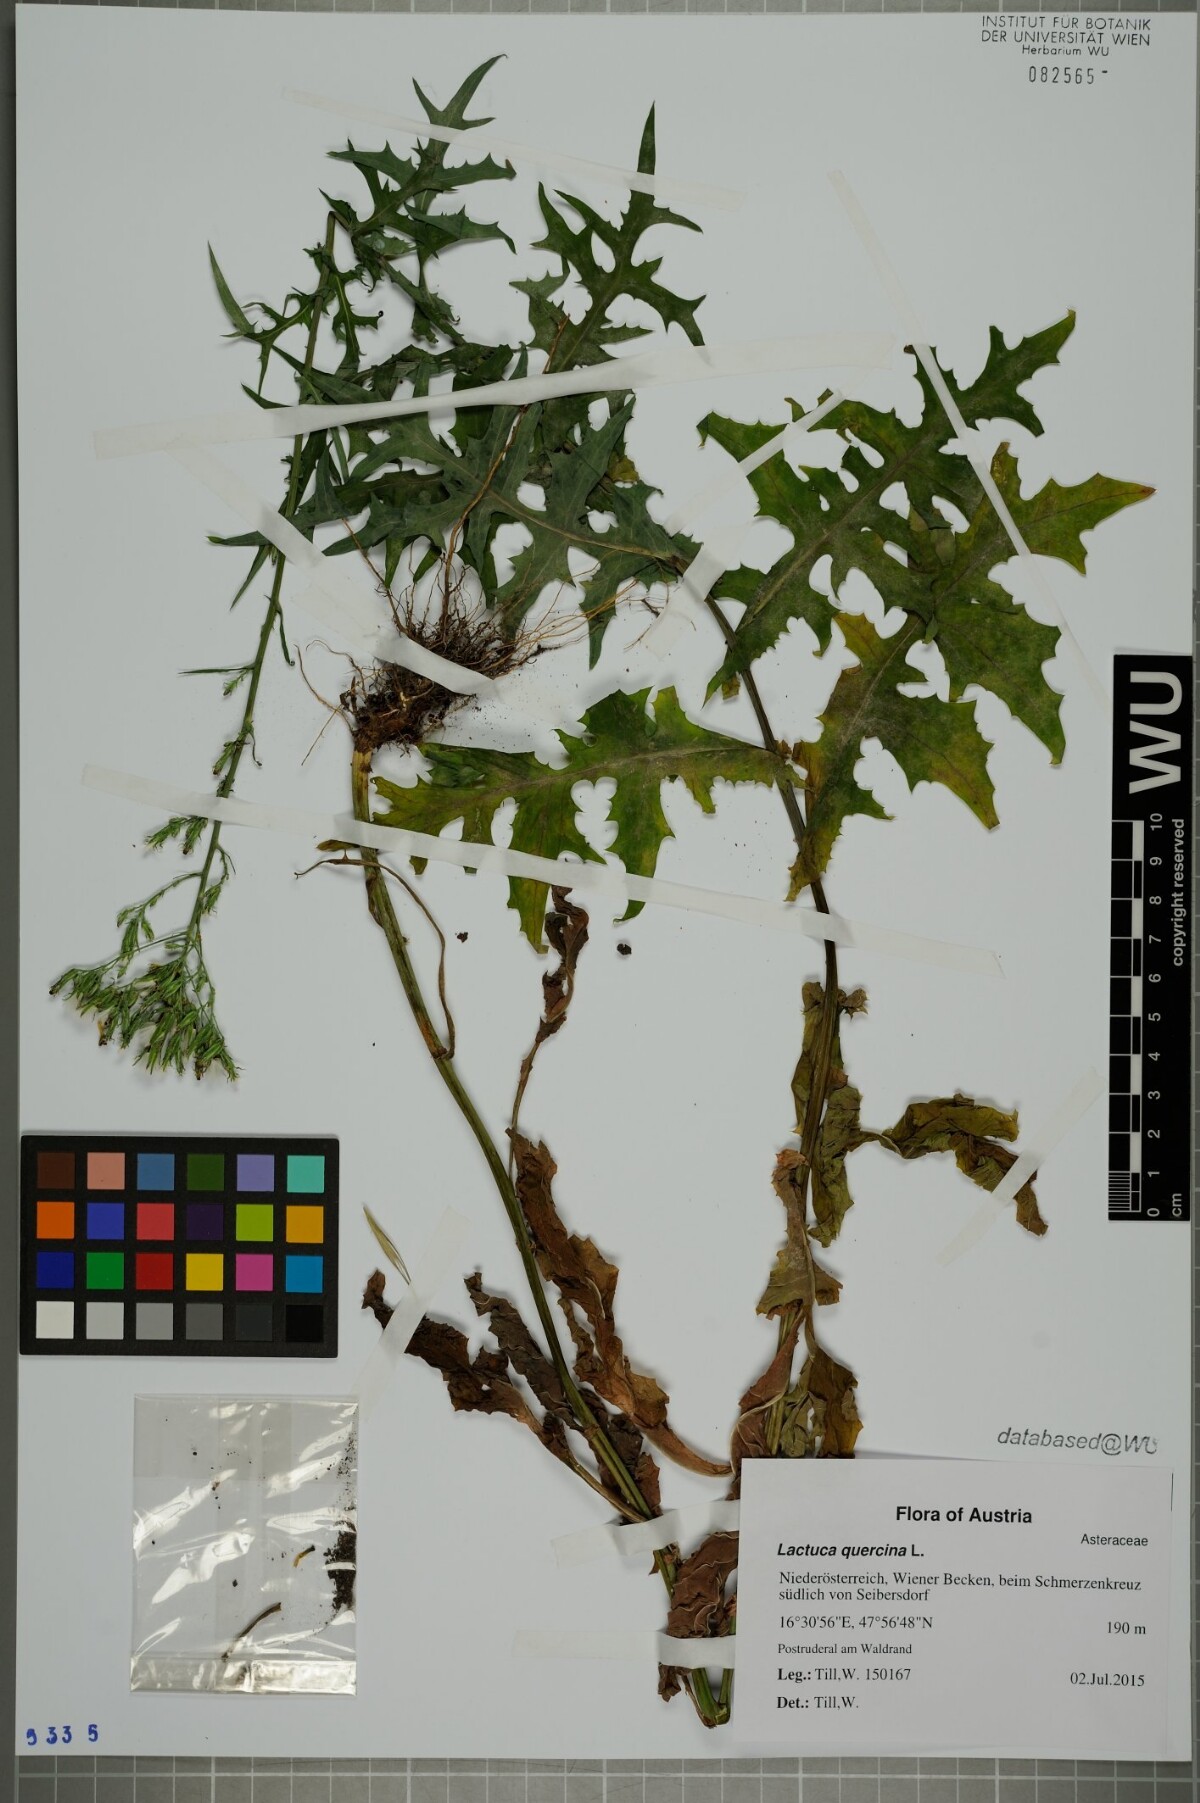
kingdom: Plantae
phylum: Tracheophyta
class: Magnoliopsida
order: Asterales
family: Asteraceae
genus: Lactuca
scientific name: Lactuca quercina
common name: Wild lettuce
